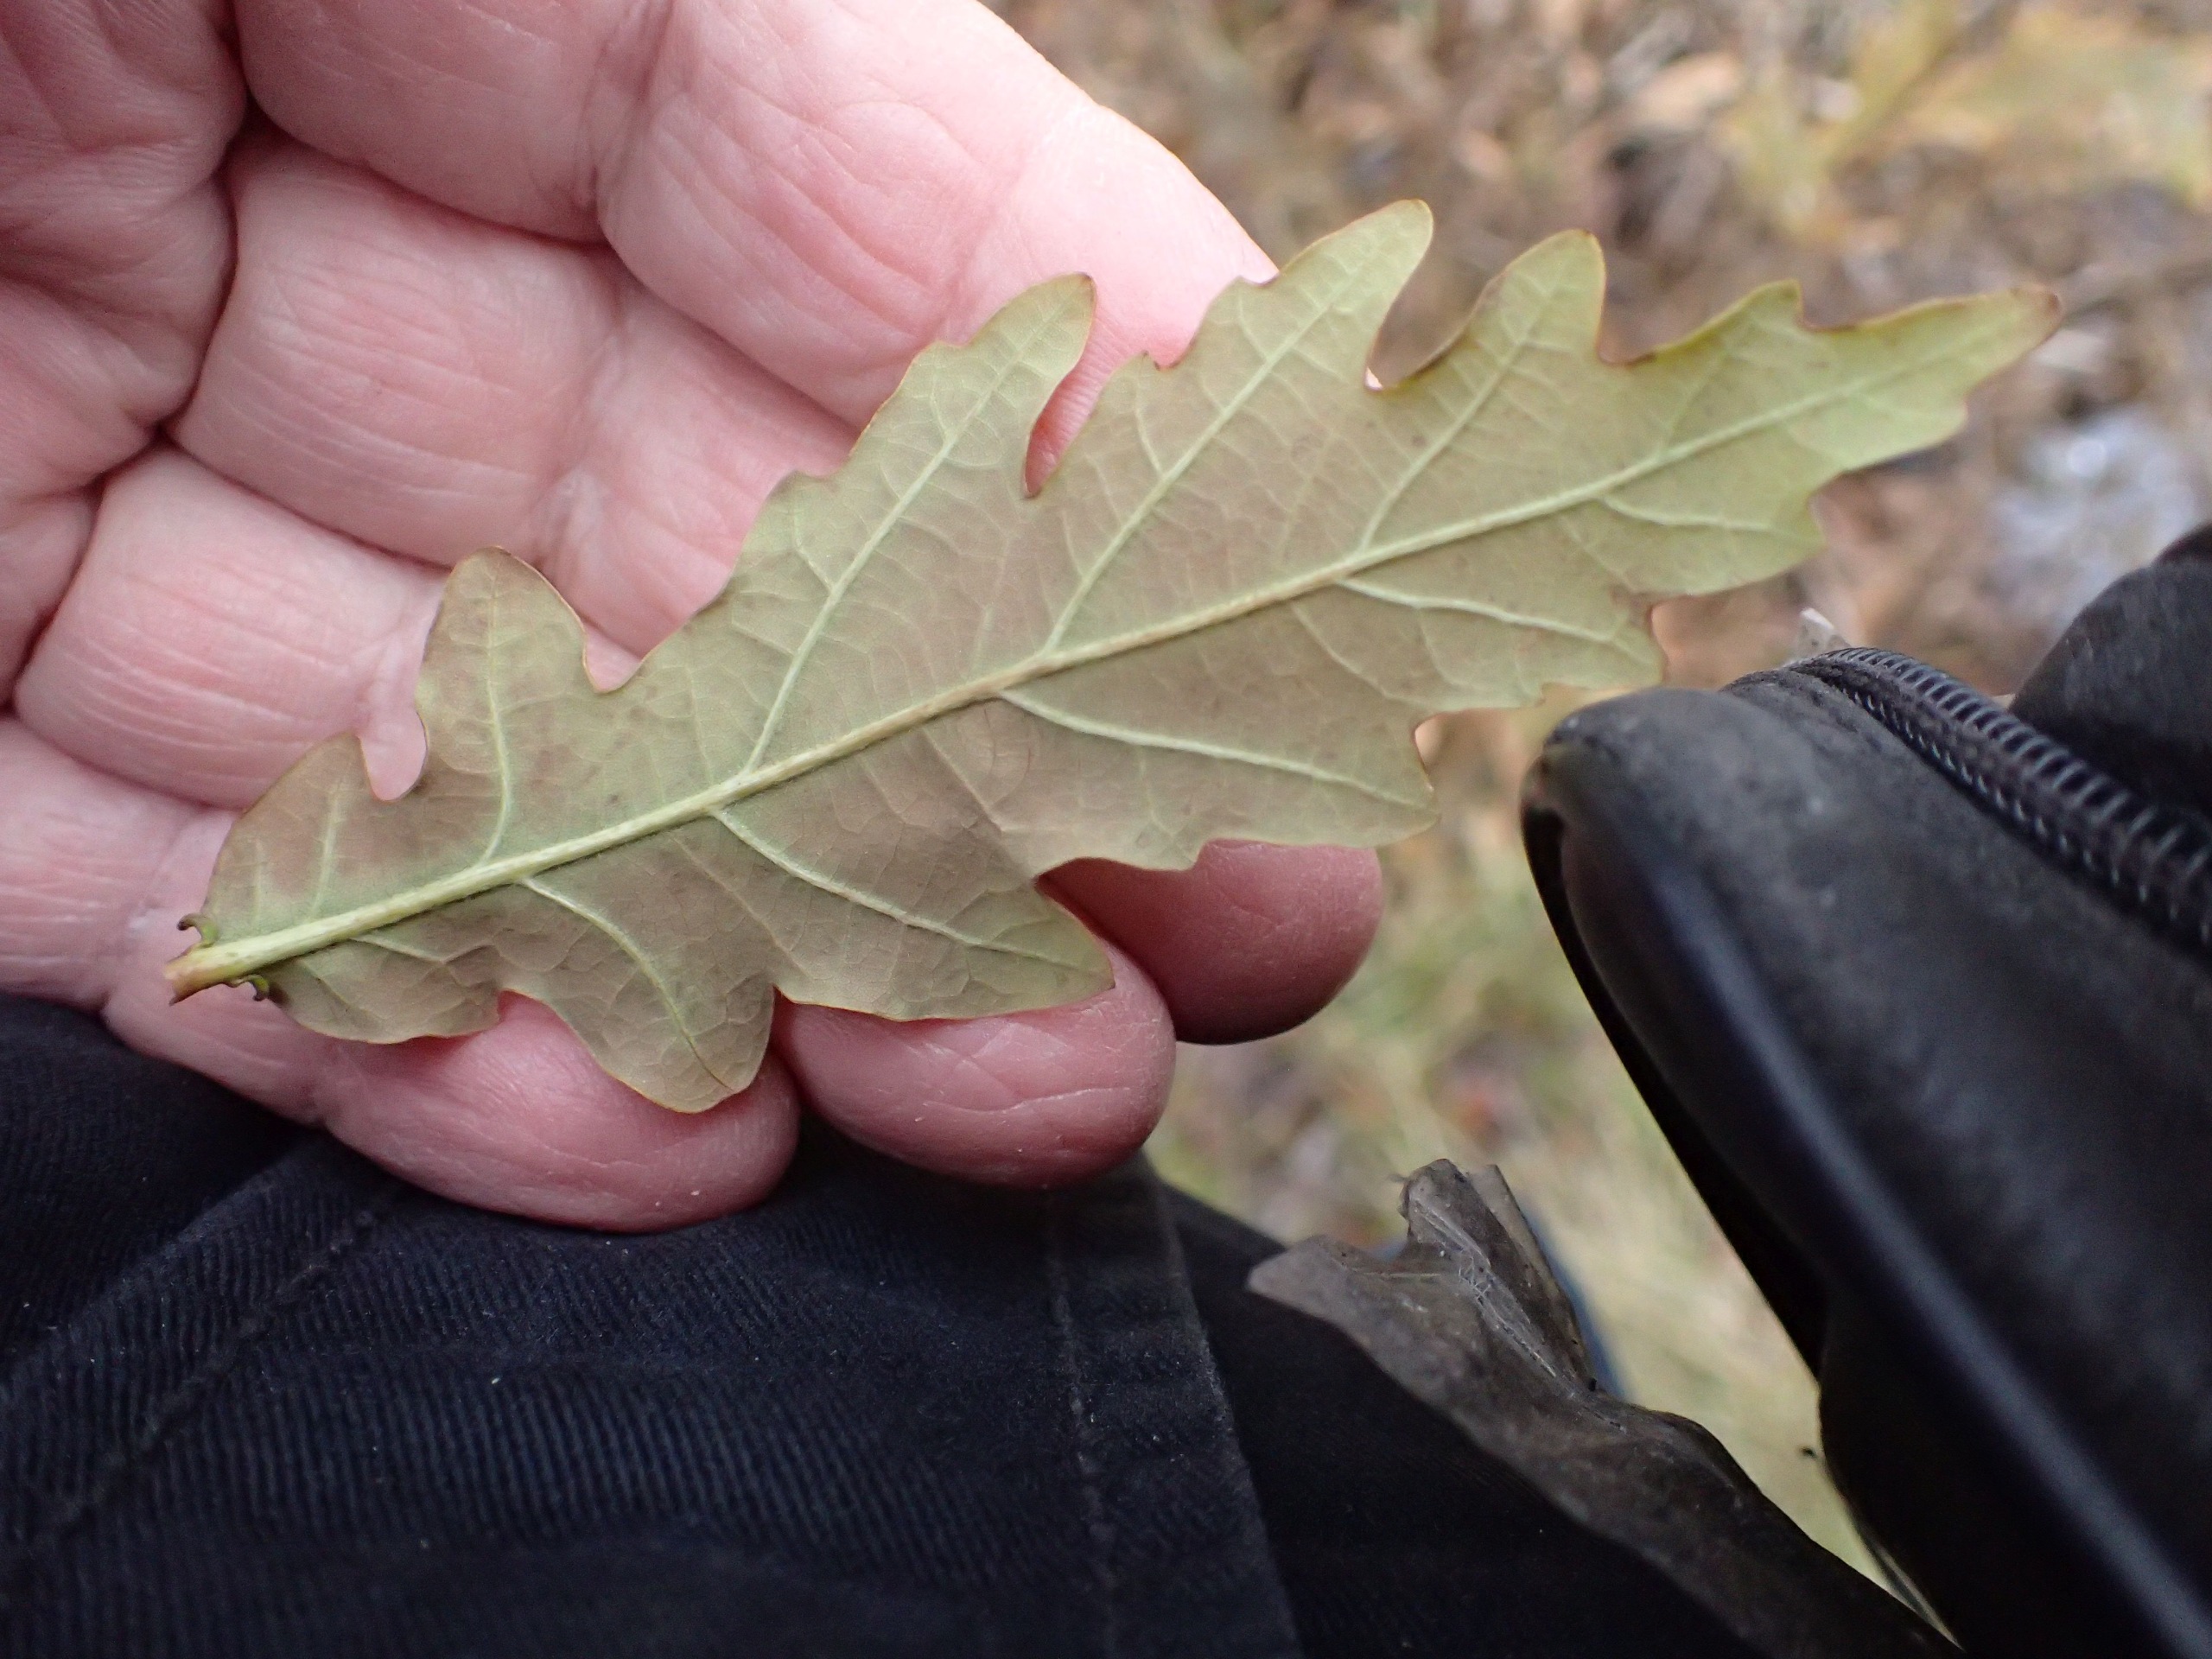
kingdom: Plantae
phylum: Tracheophyta
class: Magnoliopsida
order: Fagales
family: Fagaceae
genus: Quercus
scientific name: Quercus robur
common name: Stilk-eg/almindelig eg
